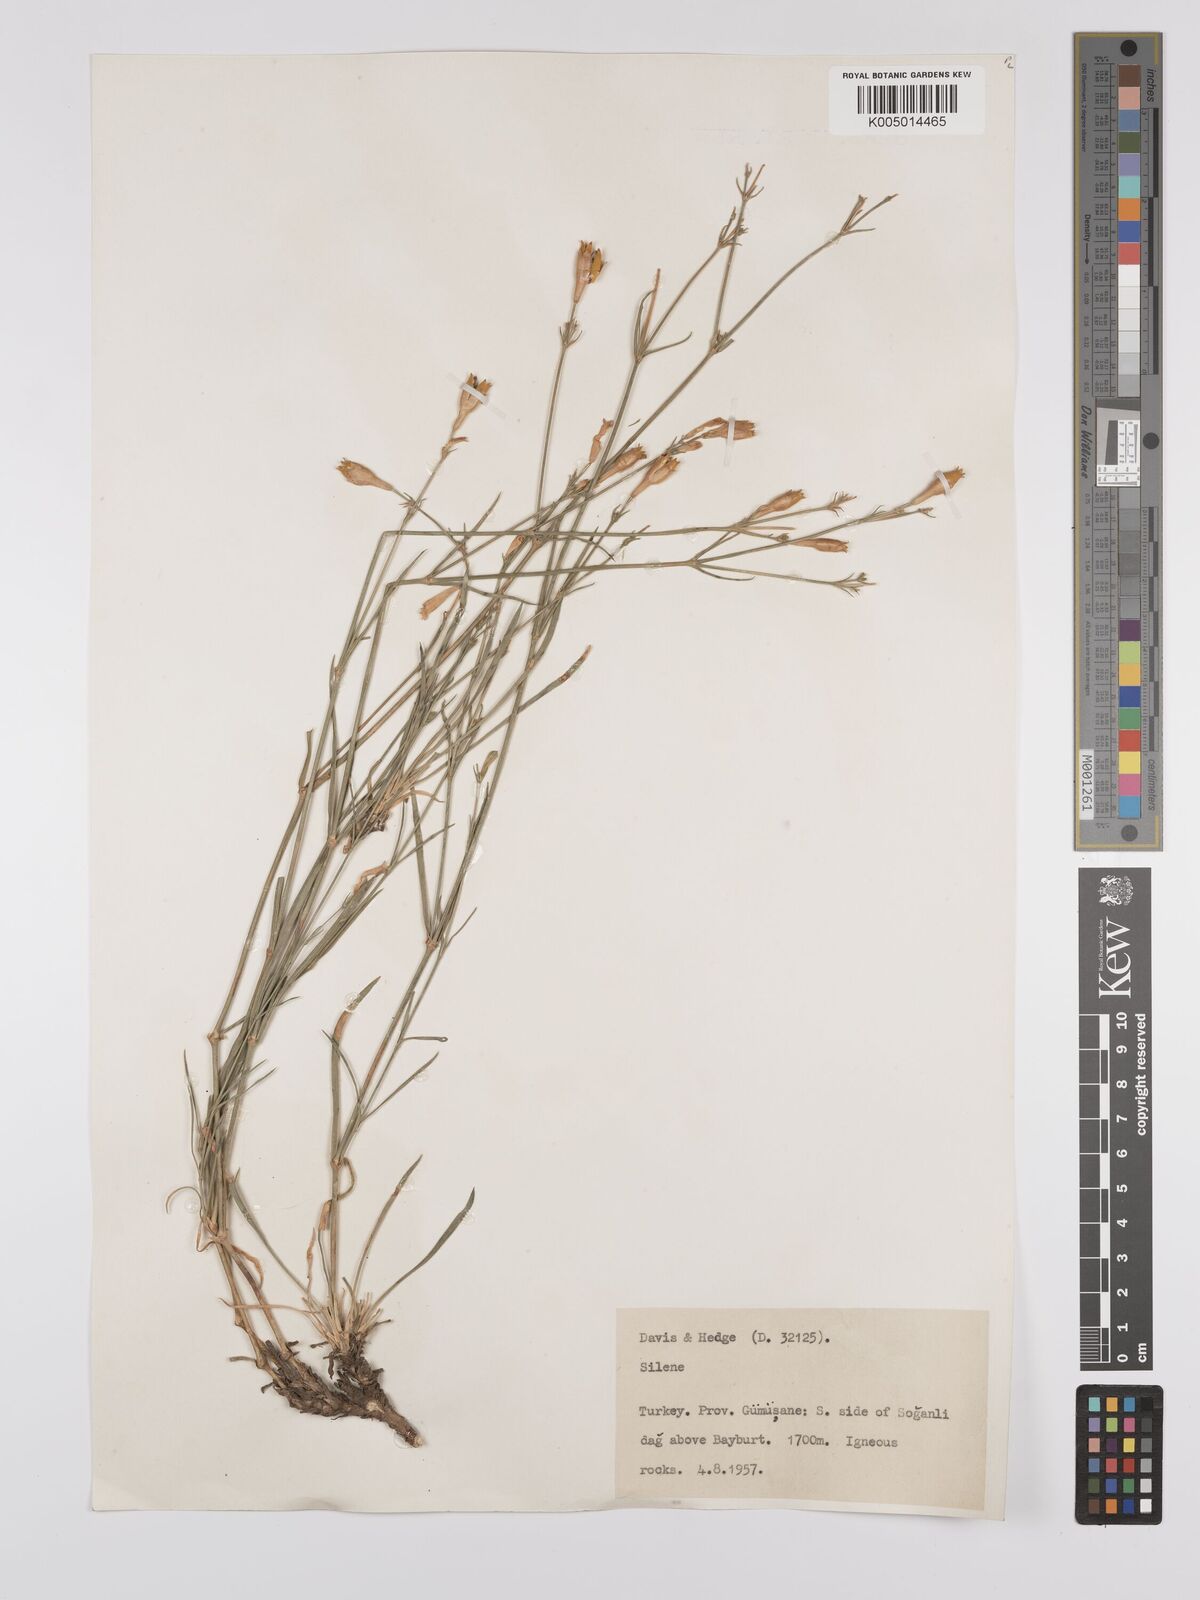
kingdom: Plantae
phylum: Tracheophyta
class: Magnoliopsida
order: Caryophyllales
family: Caryophyllaceae
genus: Silene
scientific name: Silene
